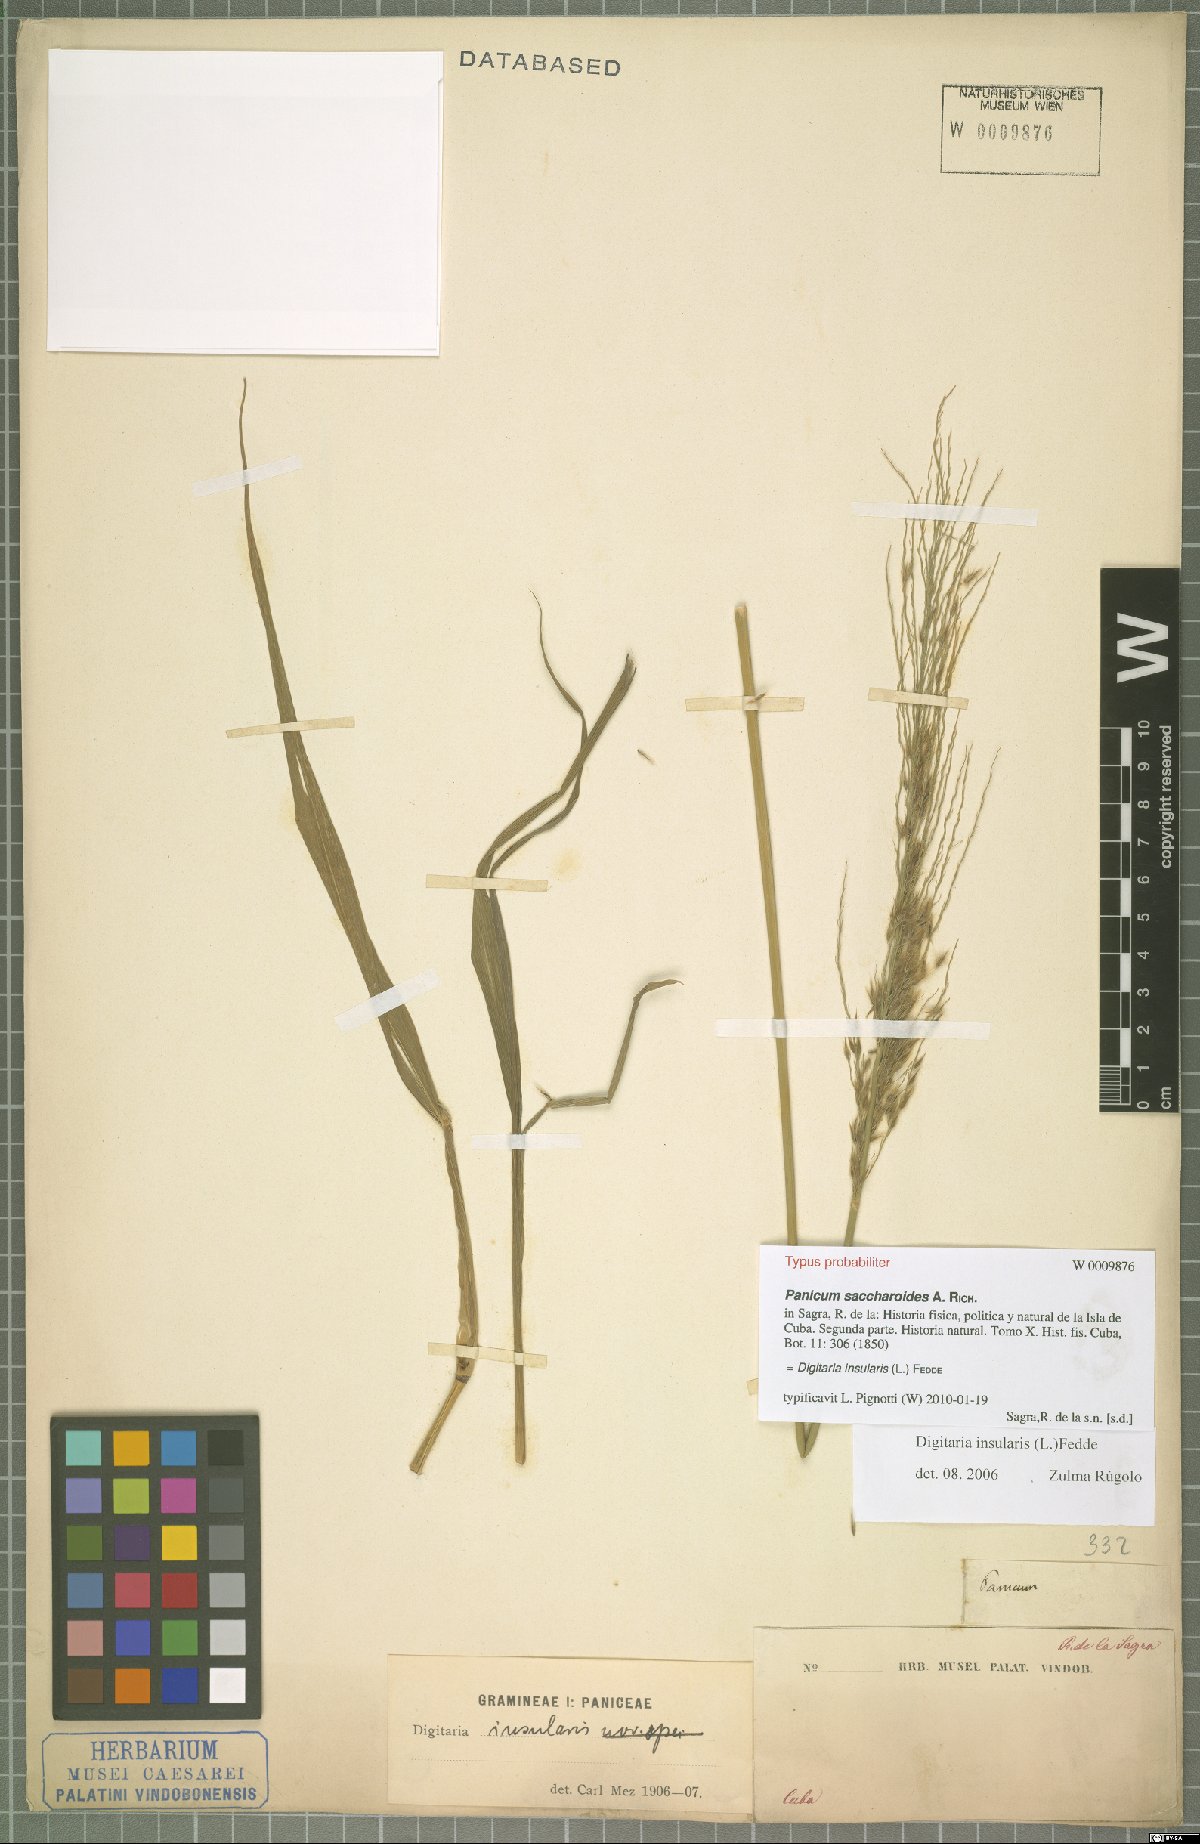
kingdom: Plantae
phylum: Tracheophyta
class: Liliopsida
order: Poales
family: Poaceae
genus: Digitaria
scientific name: Digitaria insularis
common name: Sourgrass
